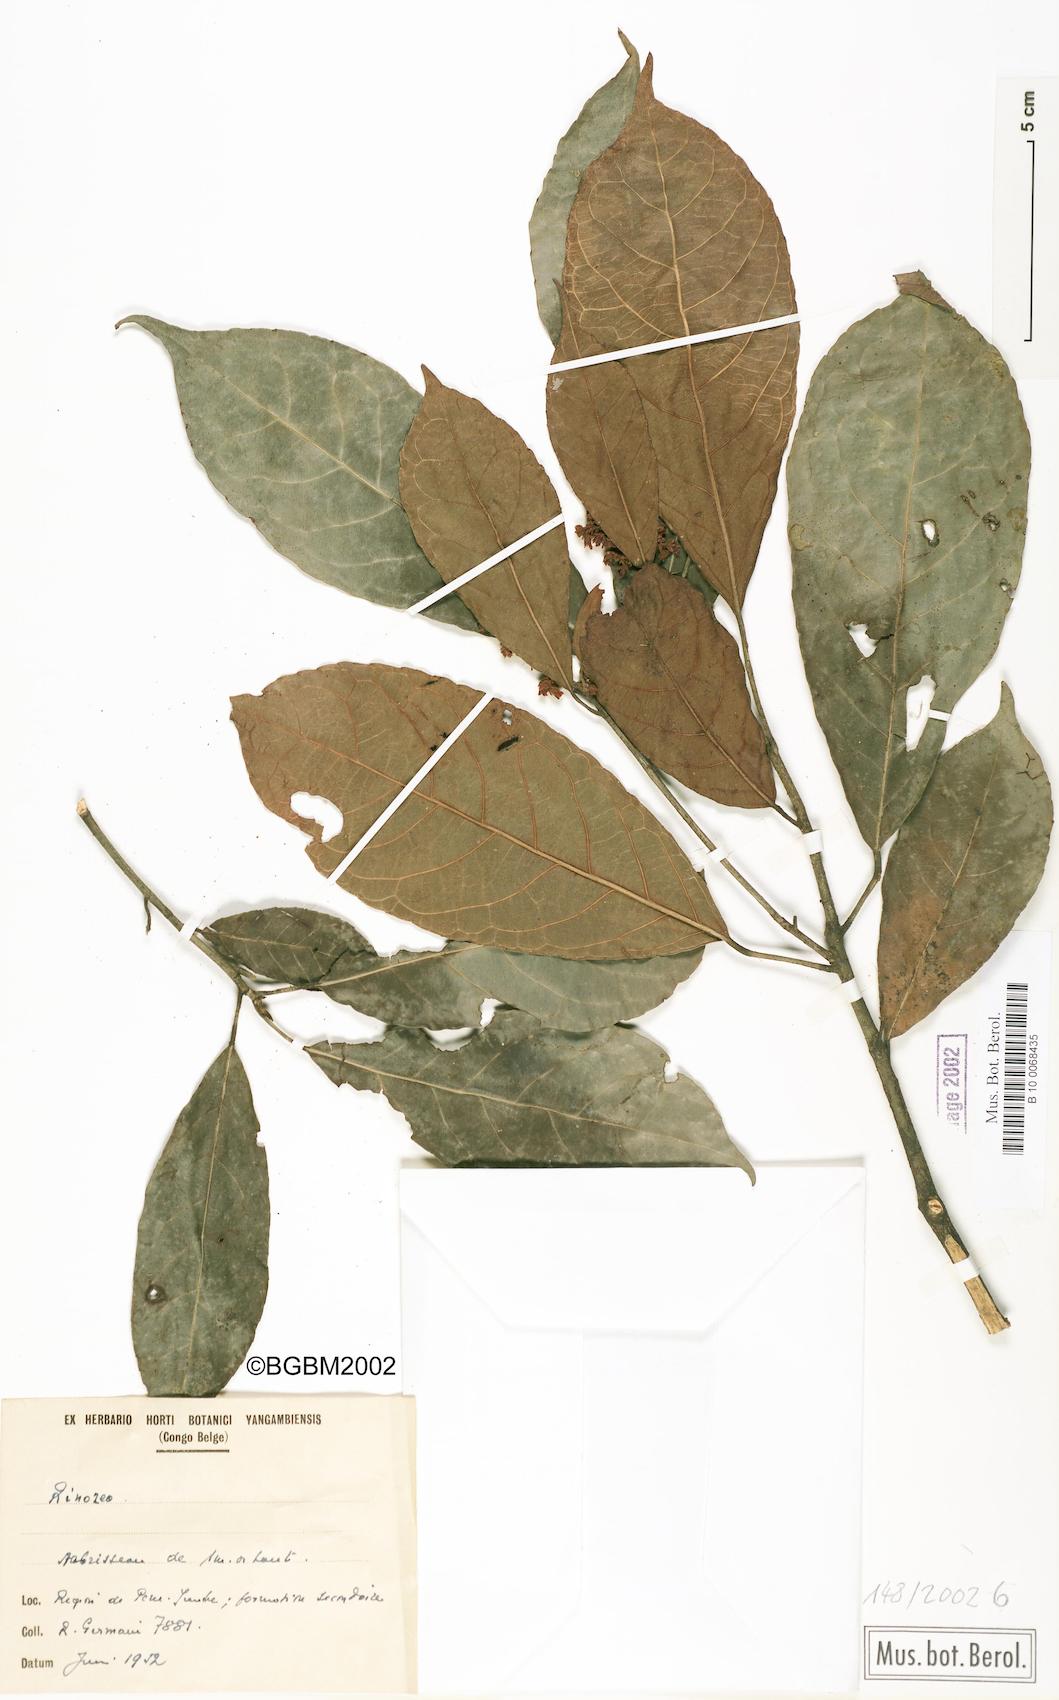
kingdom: Plantae
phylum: Tracheophyta
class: Magnoliopsida
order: Malpighiales
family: Violaceae
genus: Rinorea
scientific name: Rinorea
